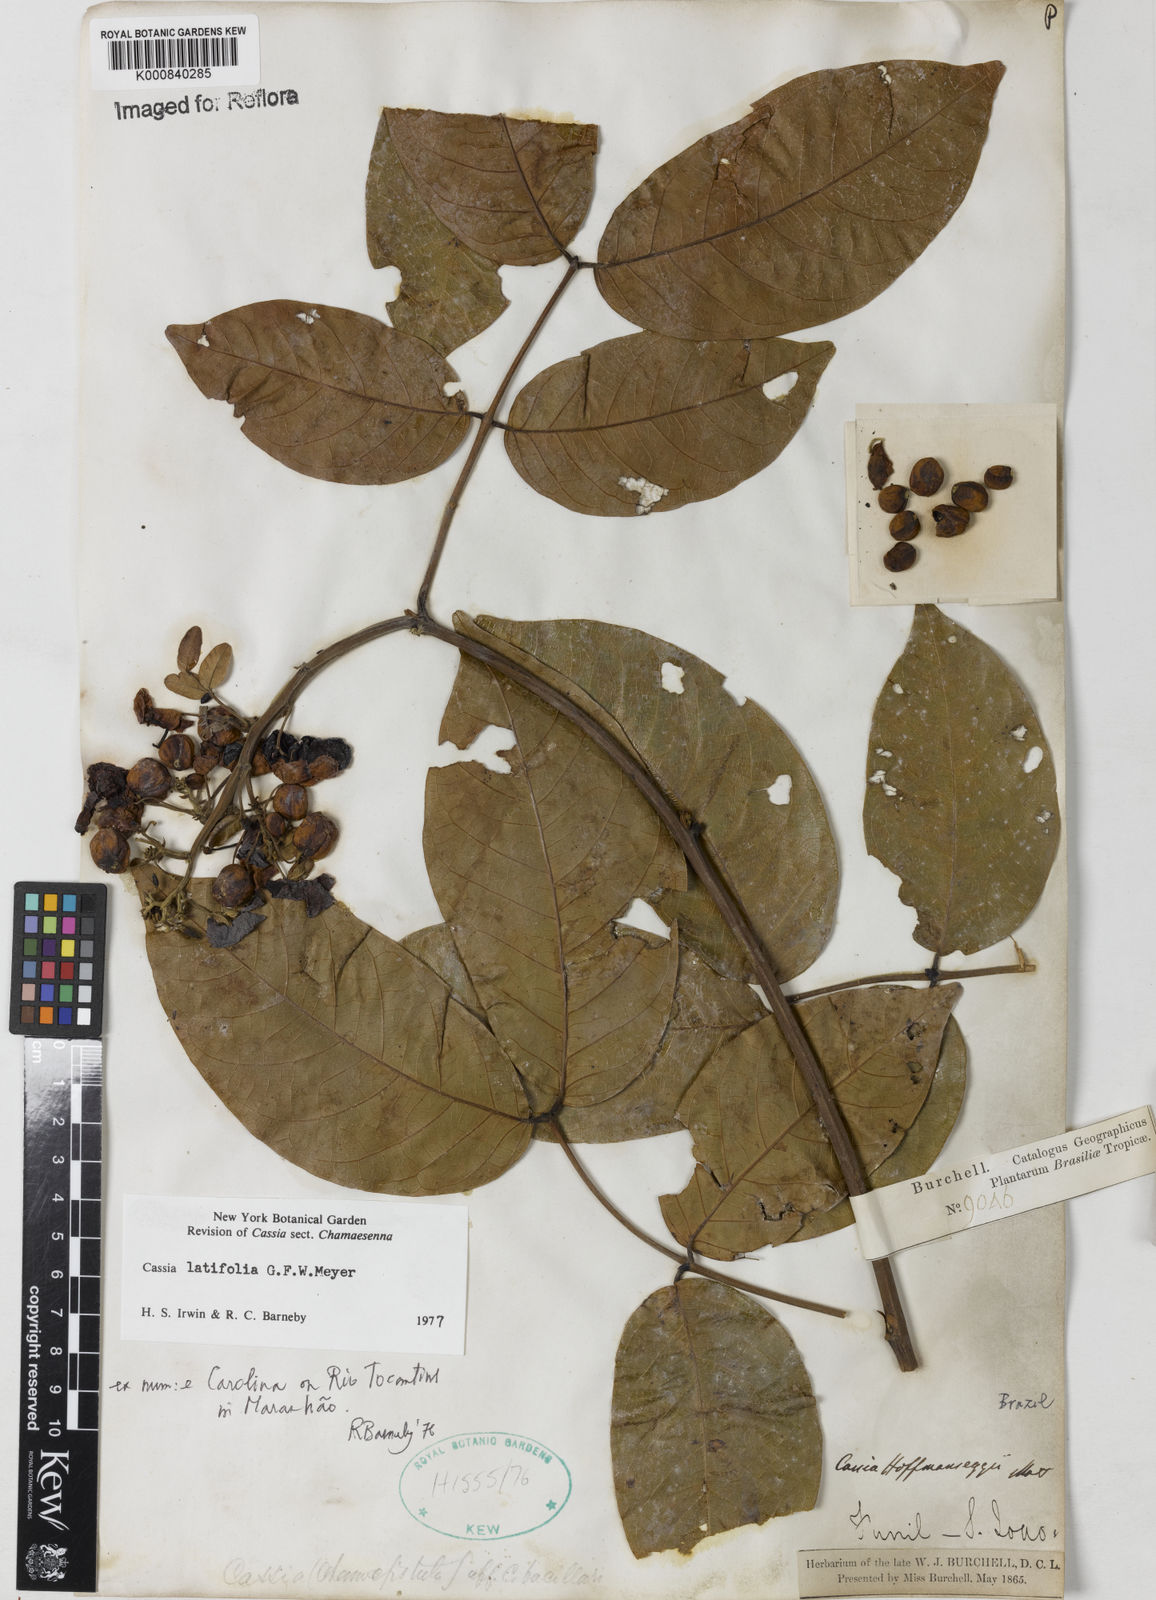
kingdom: Plantae
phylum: Tracheophyta
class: Magnoliopsida
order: Fabales
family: Fabaceae
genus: Senna
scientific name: Senna latifolia
